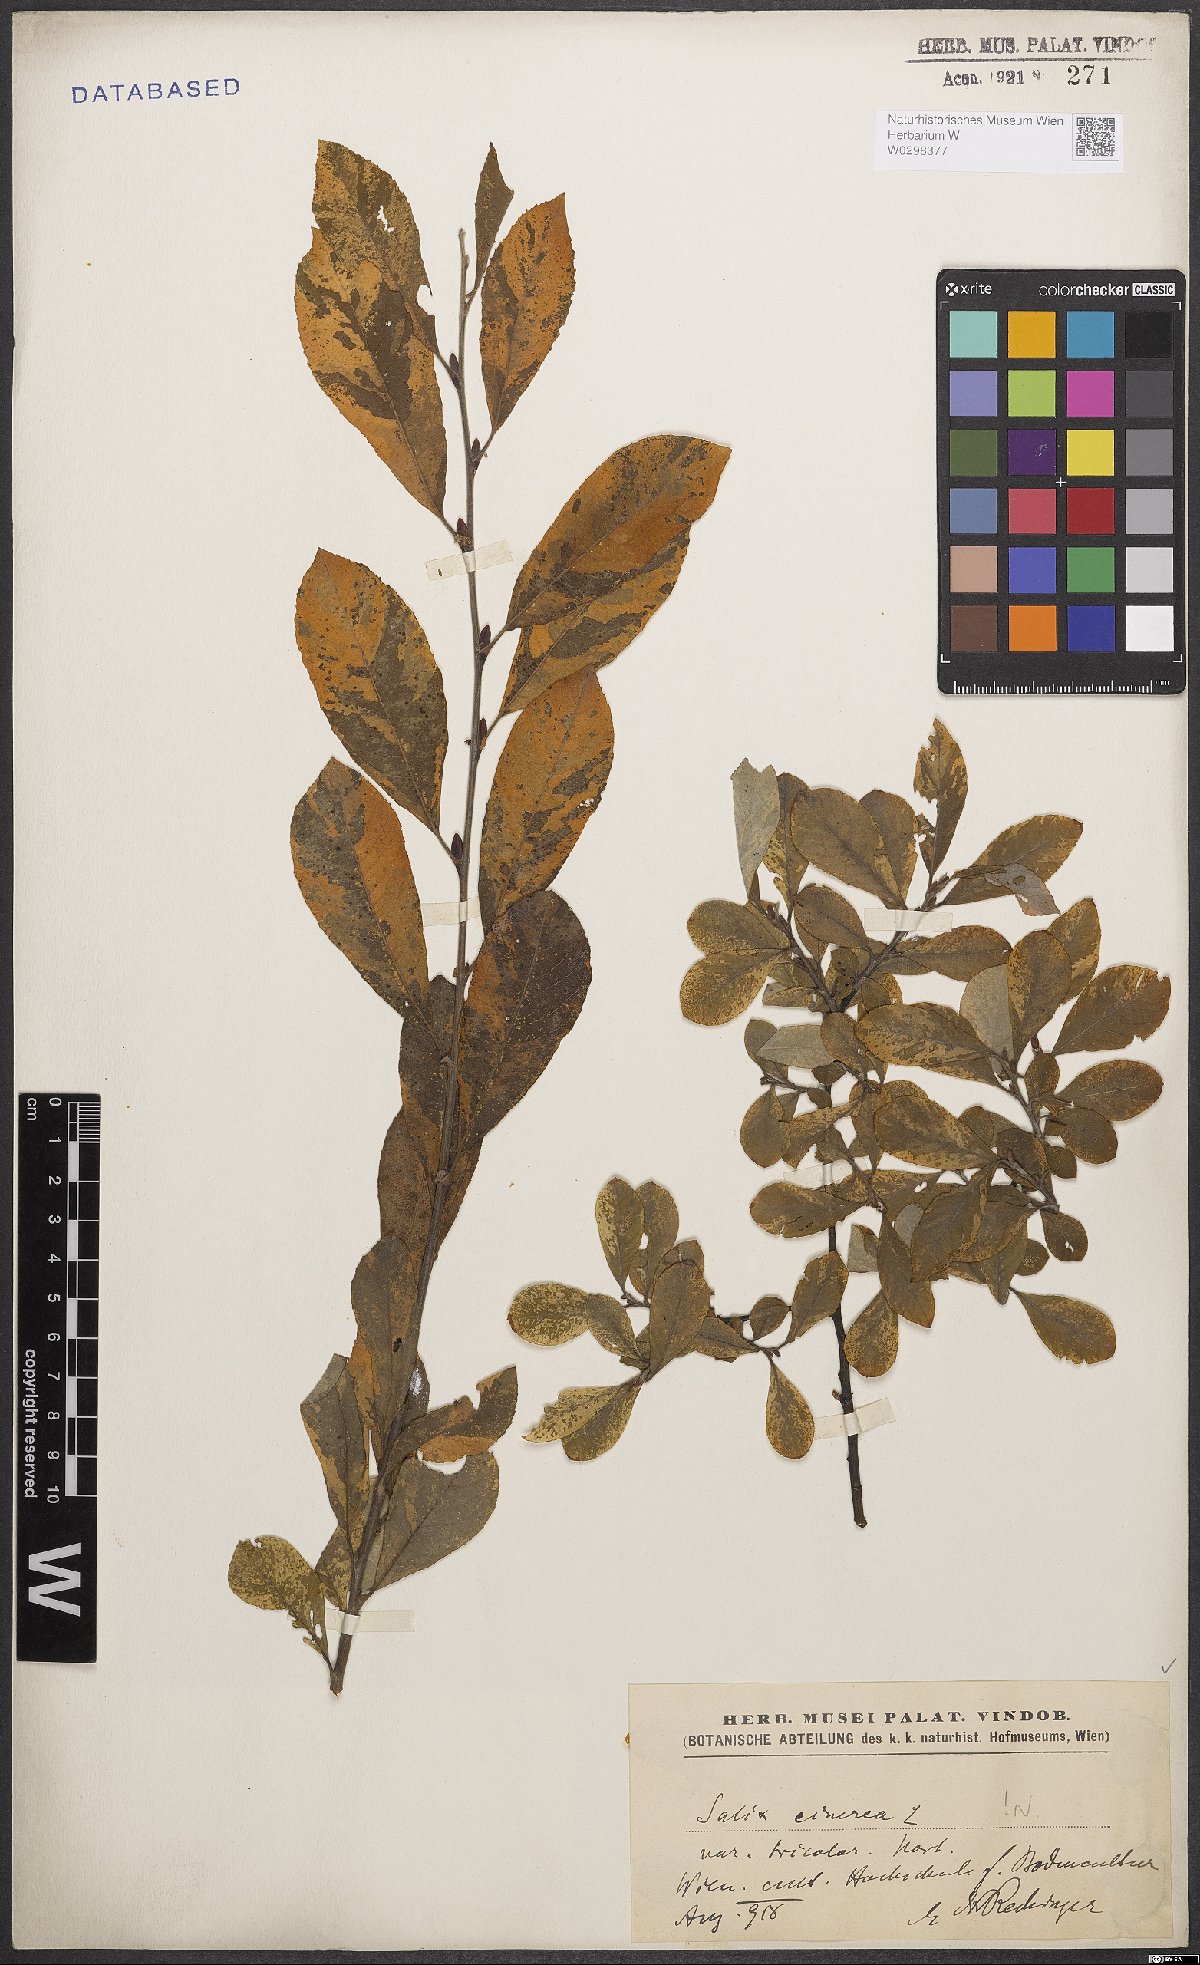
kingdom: Plantae
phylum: Tracheophyta
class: Magnoliopsida
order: Malpighiales
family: Salicaceae
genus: Salix
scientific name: Salix cinerea
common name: Common sallow
